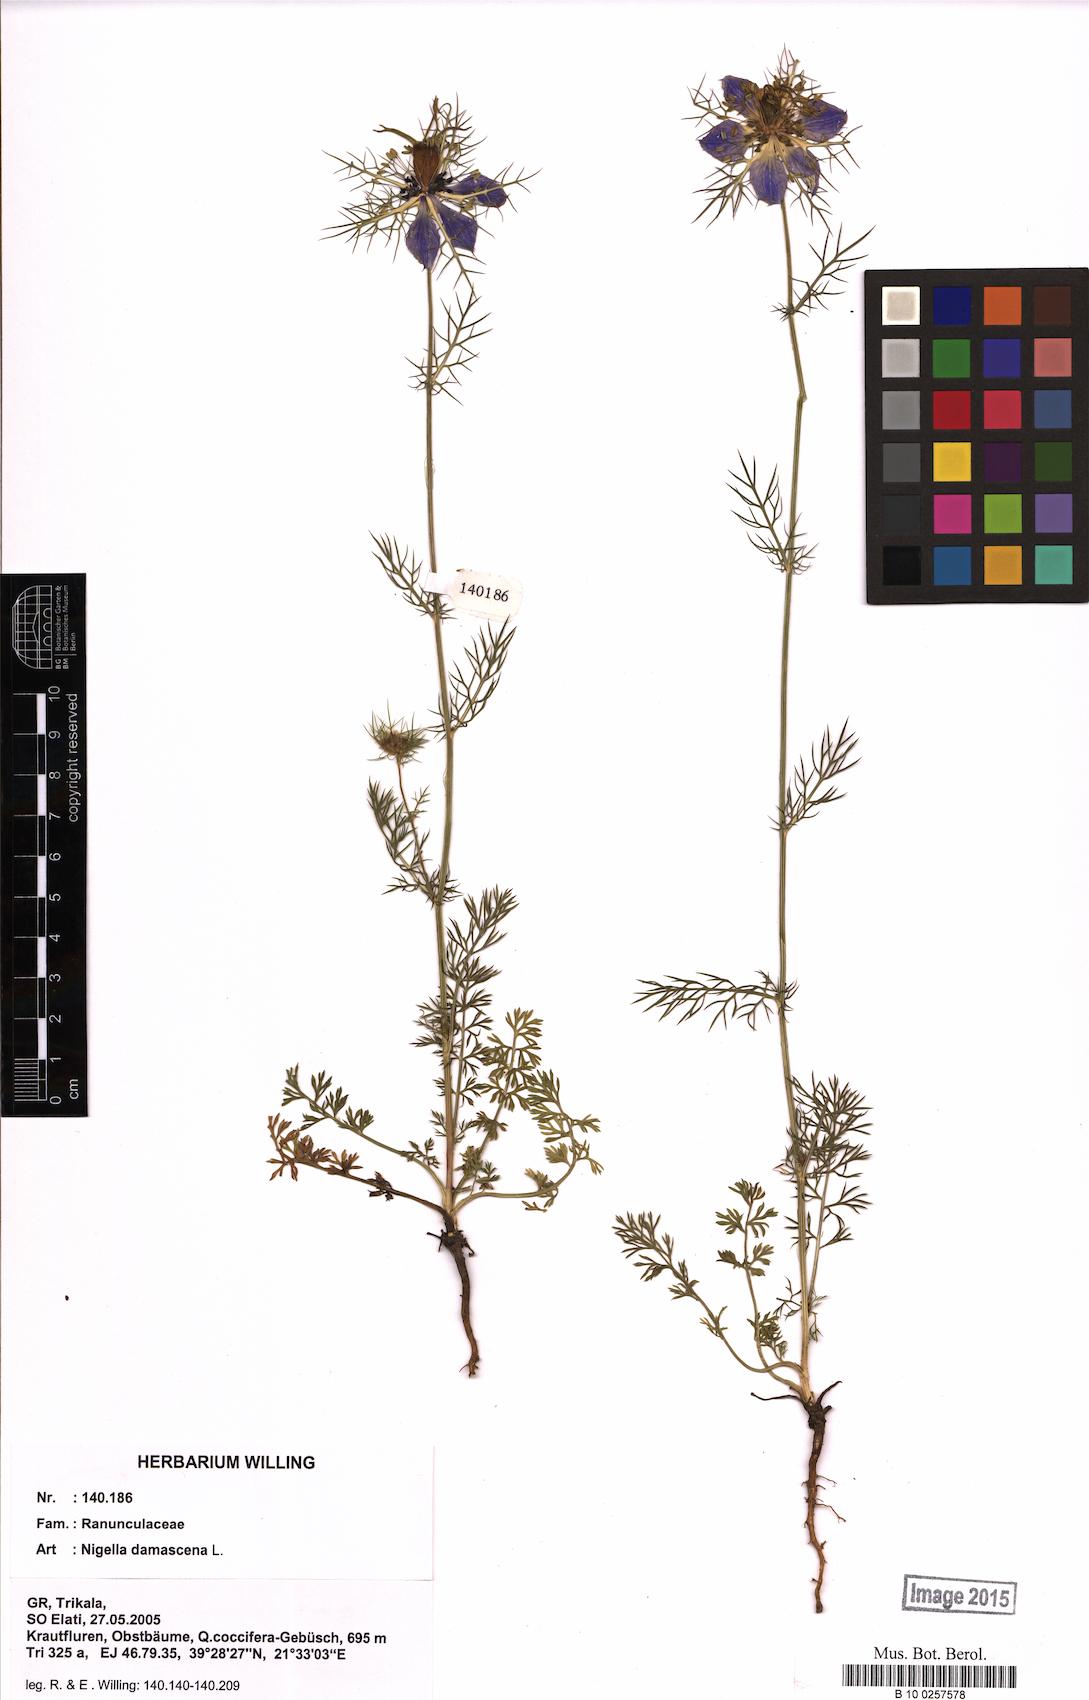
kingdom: Plantae
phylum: Tracheophyta
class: Magnoliopsida
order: Ranunculales
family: Ranunculaceae
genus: Nigella
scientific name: Nigella damascena
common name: Love-in-a-mist
